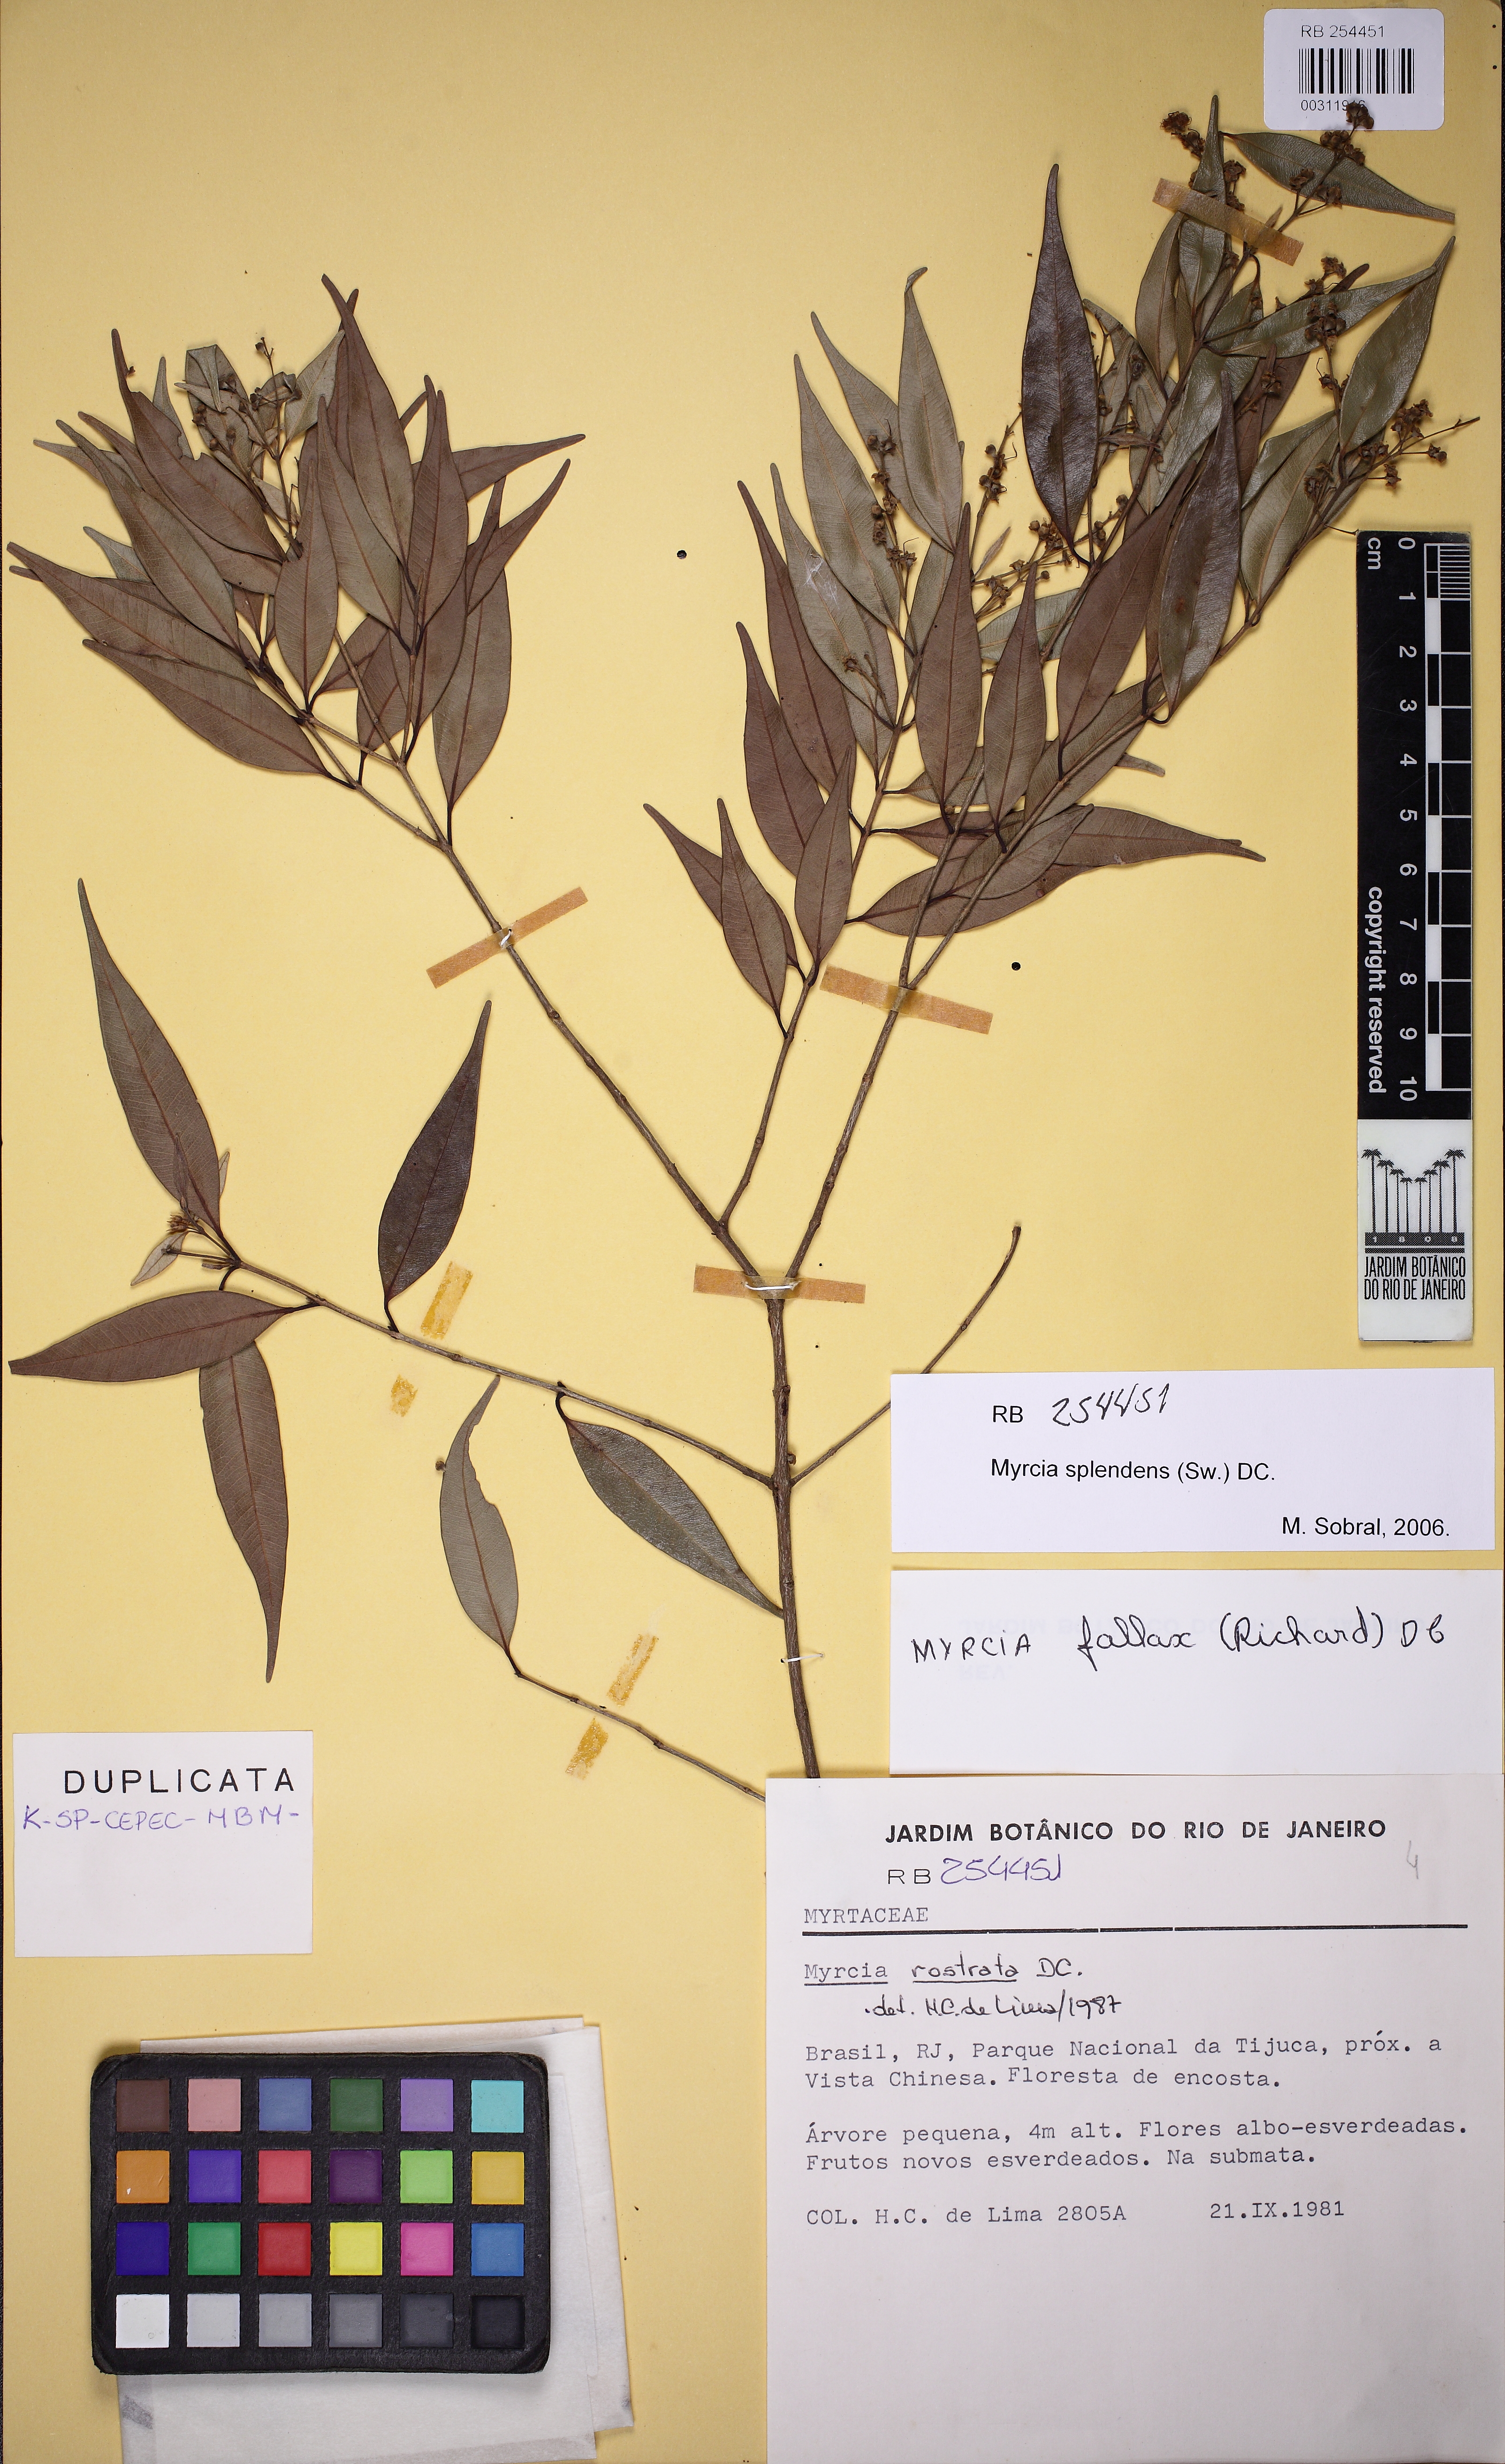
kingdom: Plantae
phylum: Tracheophyta
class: Magnoliopsida
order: Myrtales
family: Myrtaceae
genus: Myrcia
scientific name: Myrcia splendens
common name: Surinam cherry
